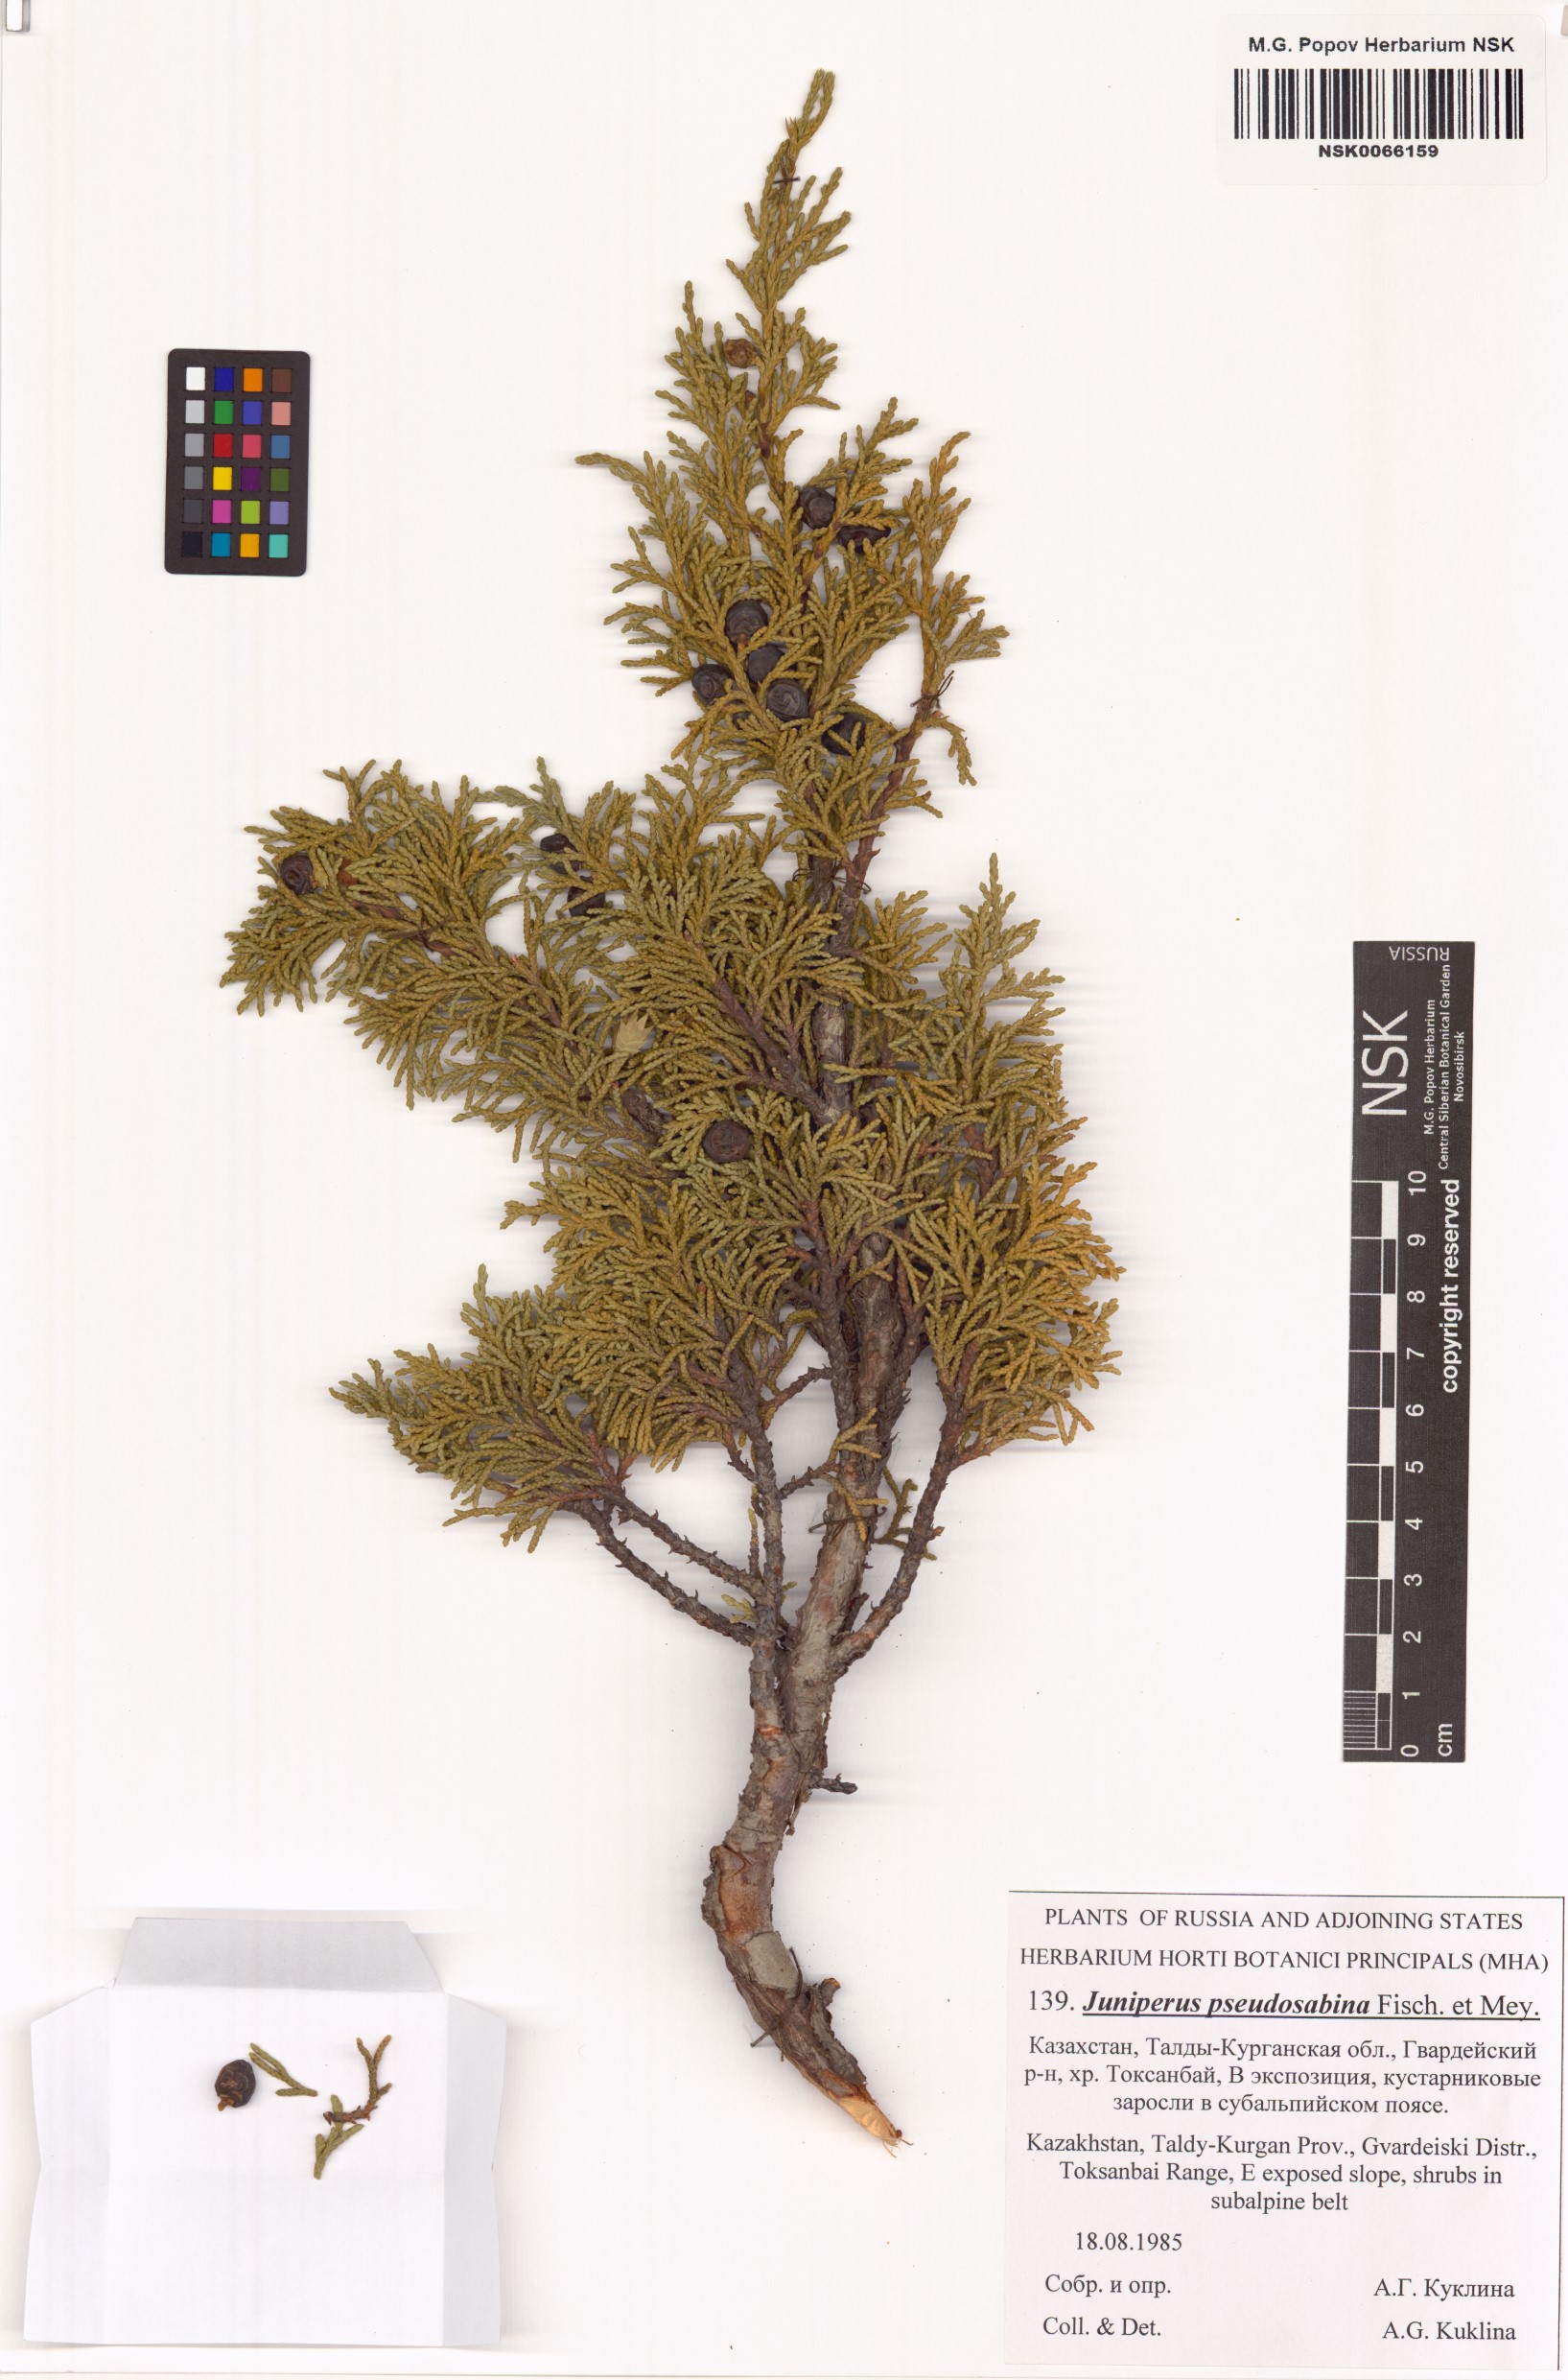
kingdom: Plantae
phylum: Tracheophyta
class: Pinopsida
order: Pinales
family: Cupressaceae
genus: Juniperus
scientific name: Juniperus pseudosabina
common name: Turkestan juniper
